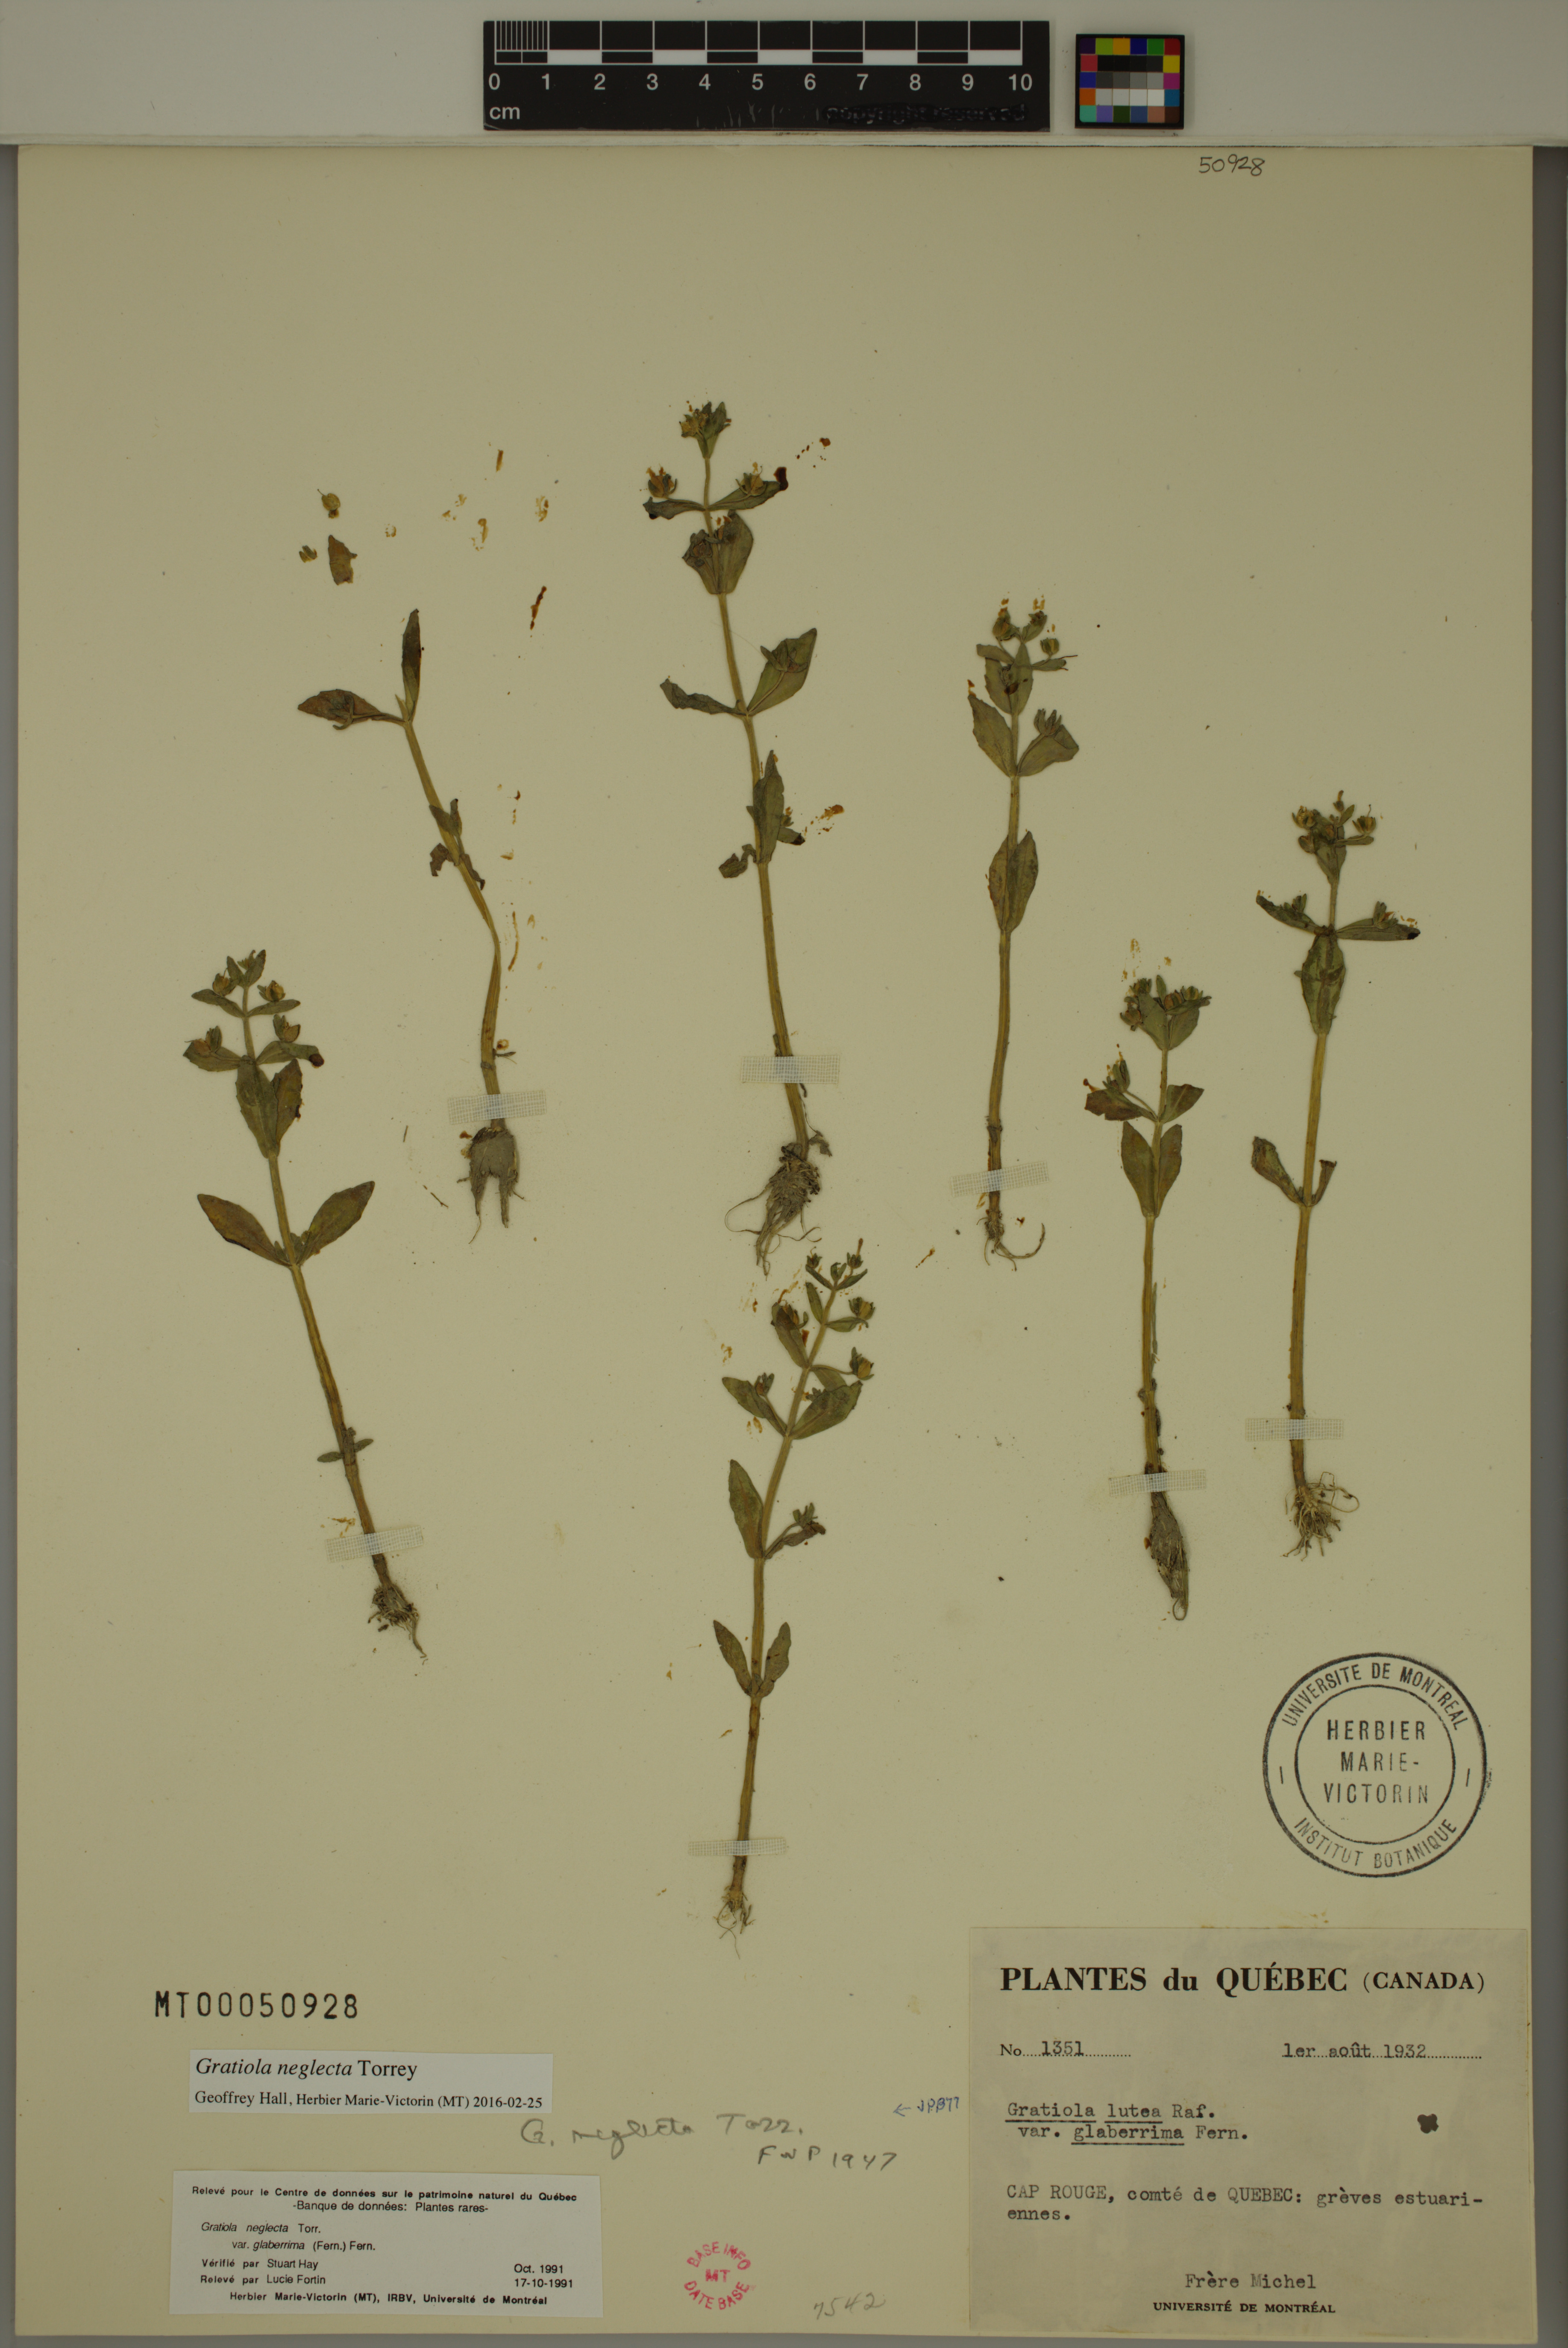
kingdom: Plantae
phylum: Tracheophyta
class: Magnoliopsida
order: Lamiales
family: Plantaginaceae
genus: Gratiola
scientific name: Gratiola neglecta
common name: American hedge-hyssop
